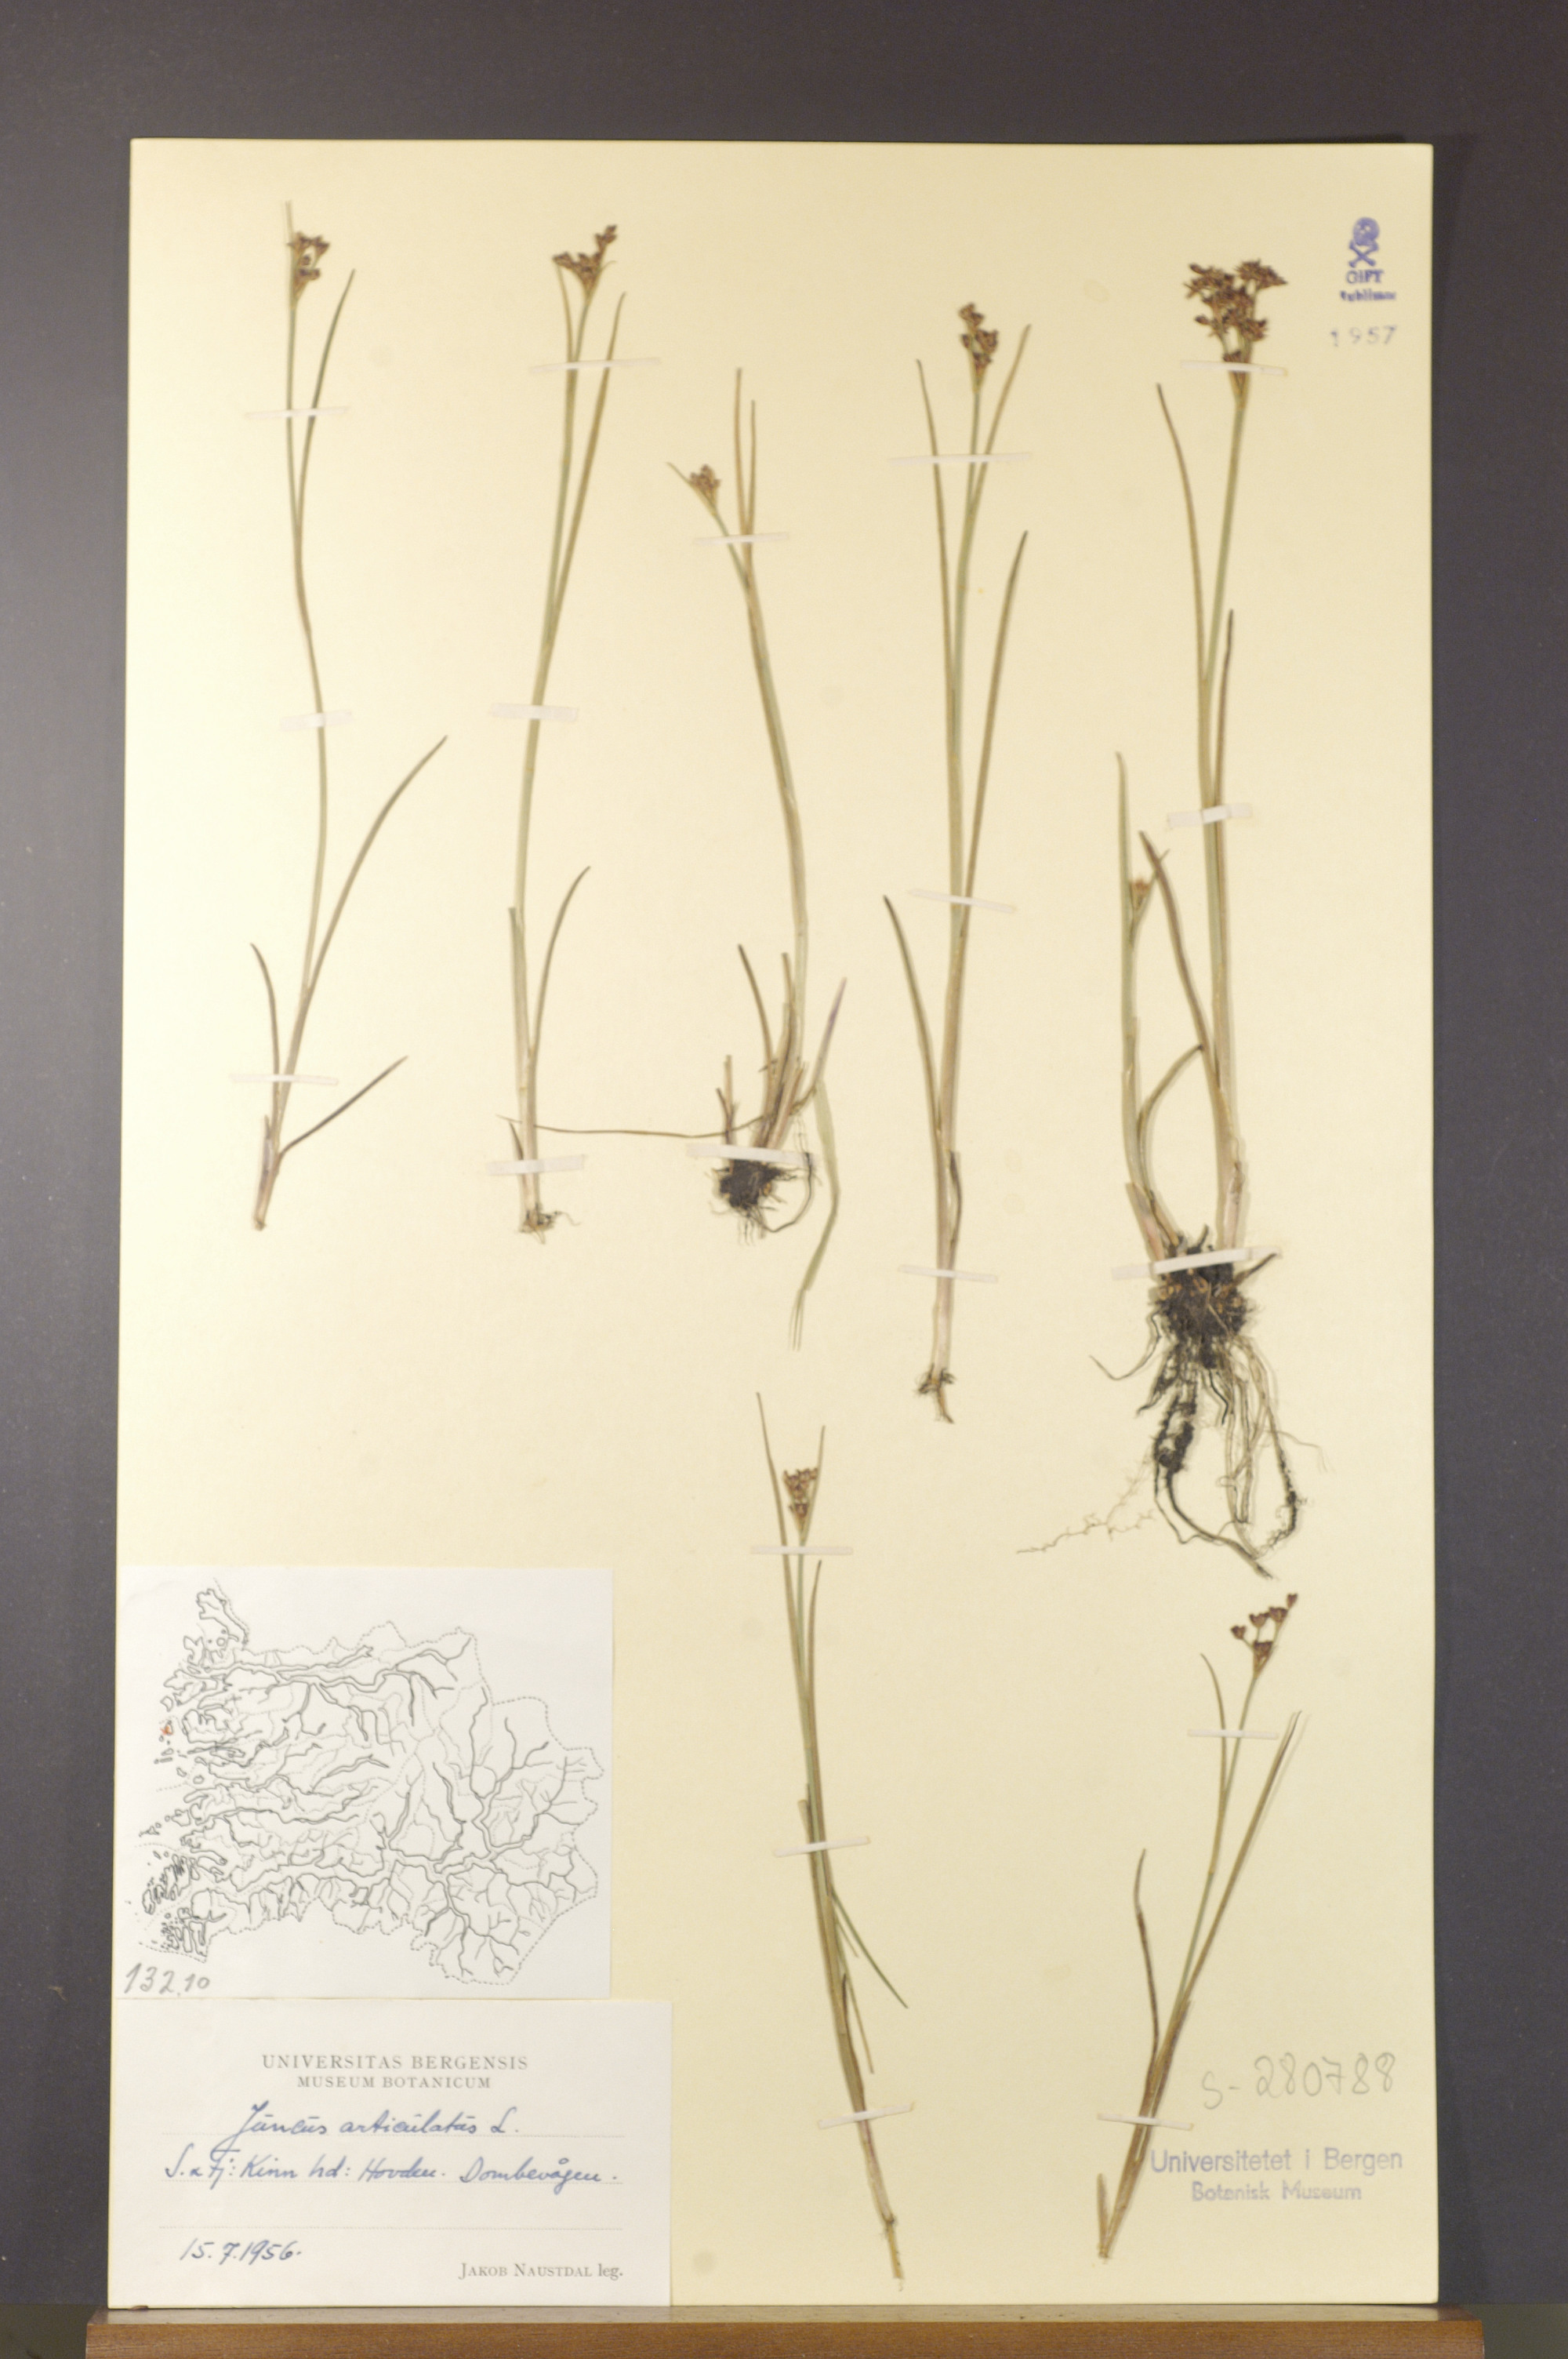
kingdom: Plantae
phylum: Tracheophyta
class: Liliopsida
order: Poales
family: Juncaceae
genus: Juncus
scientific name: Juncus articulatus
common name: Jointed rush
